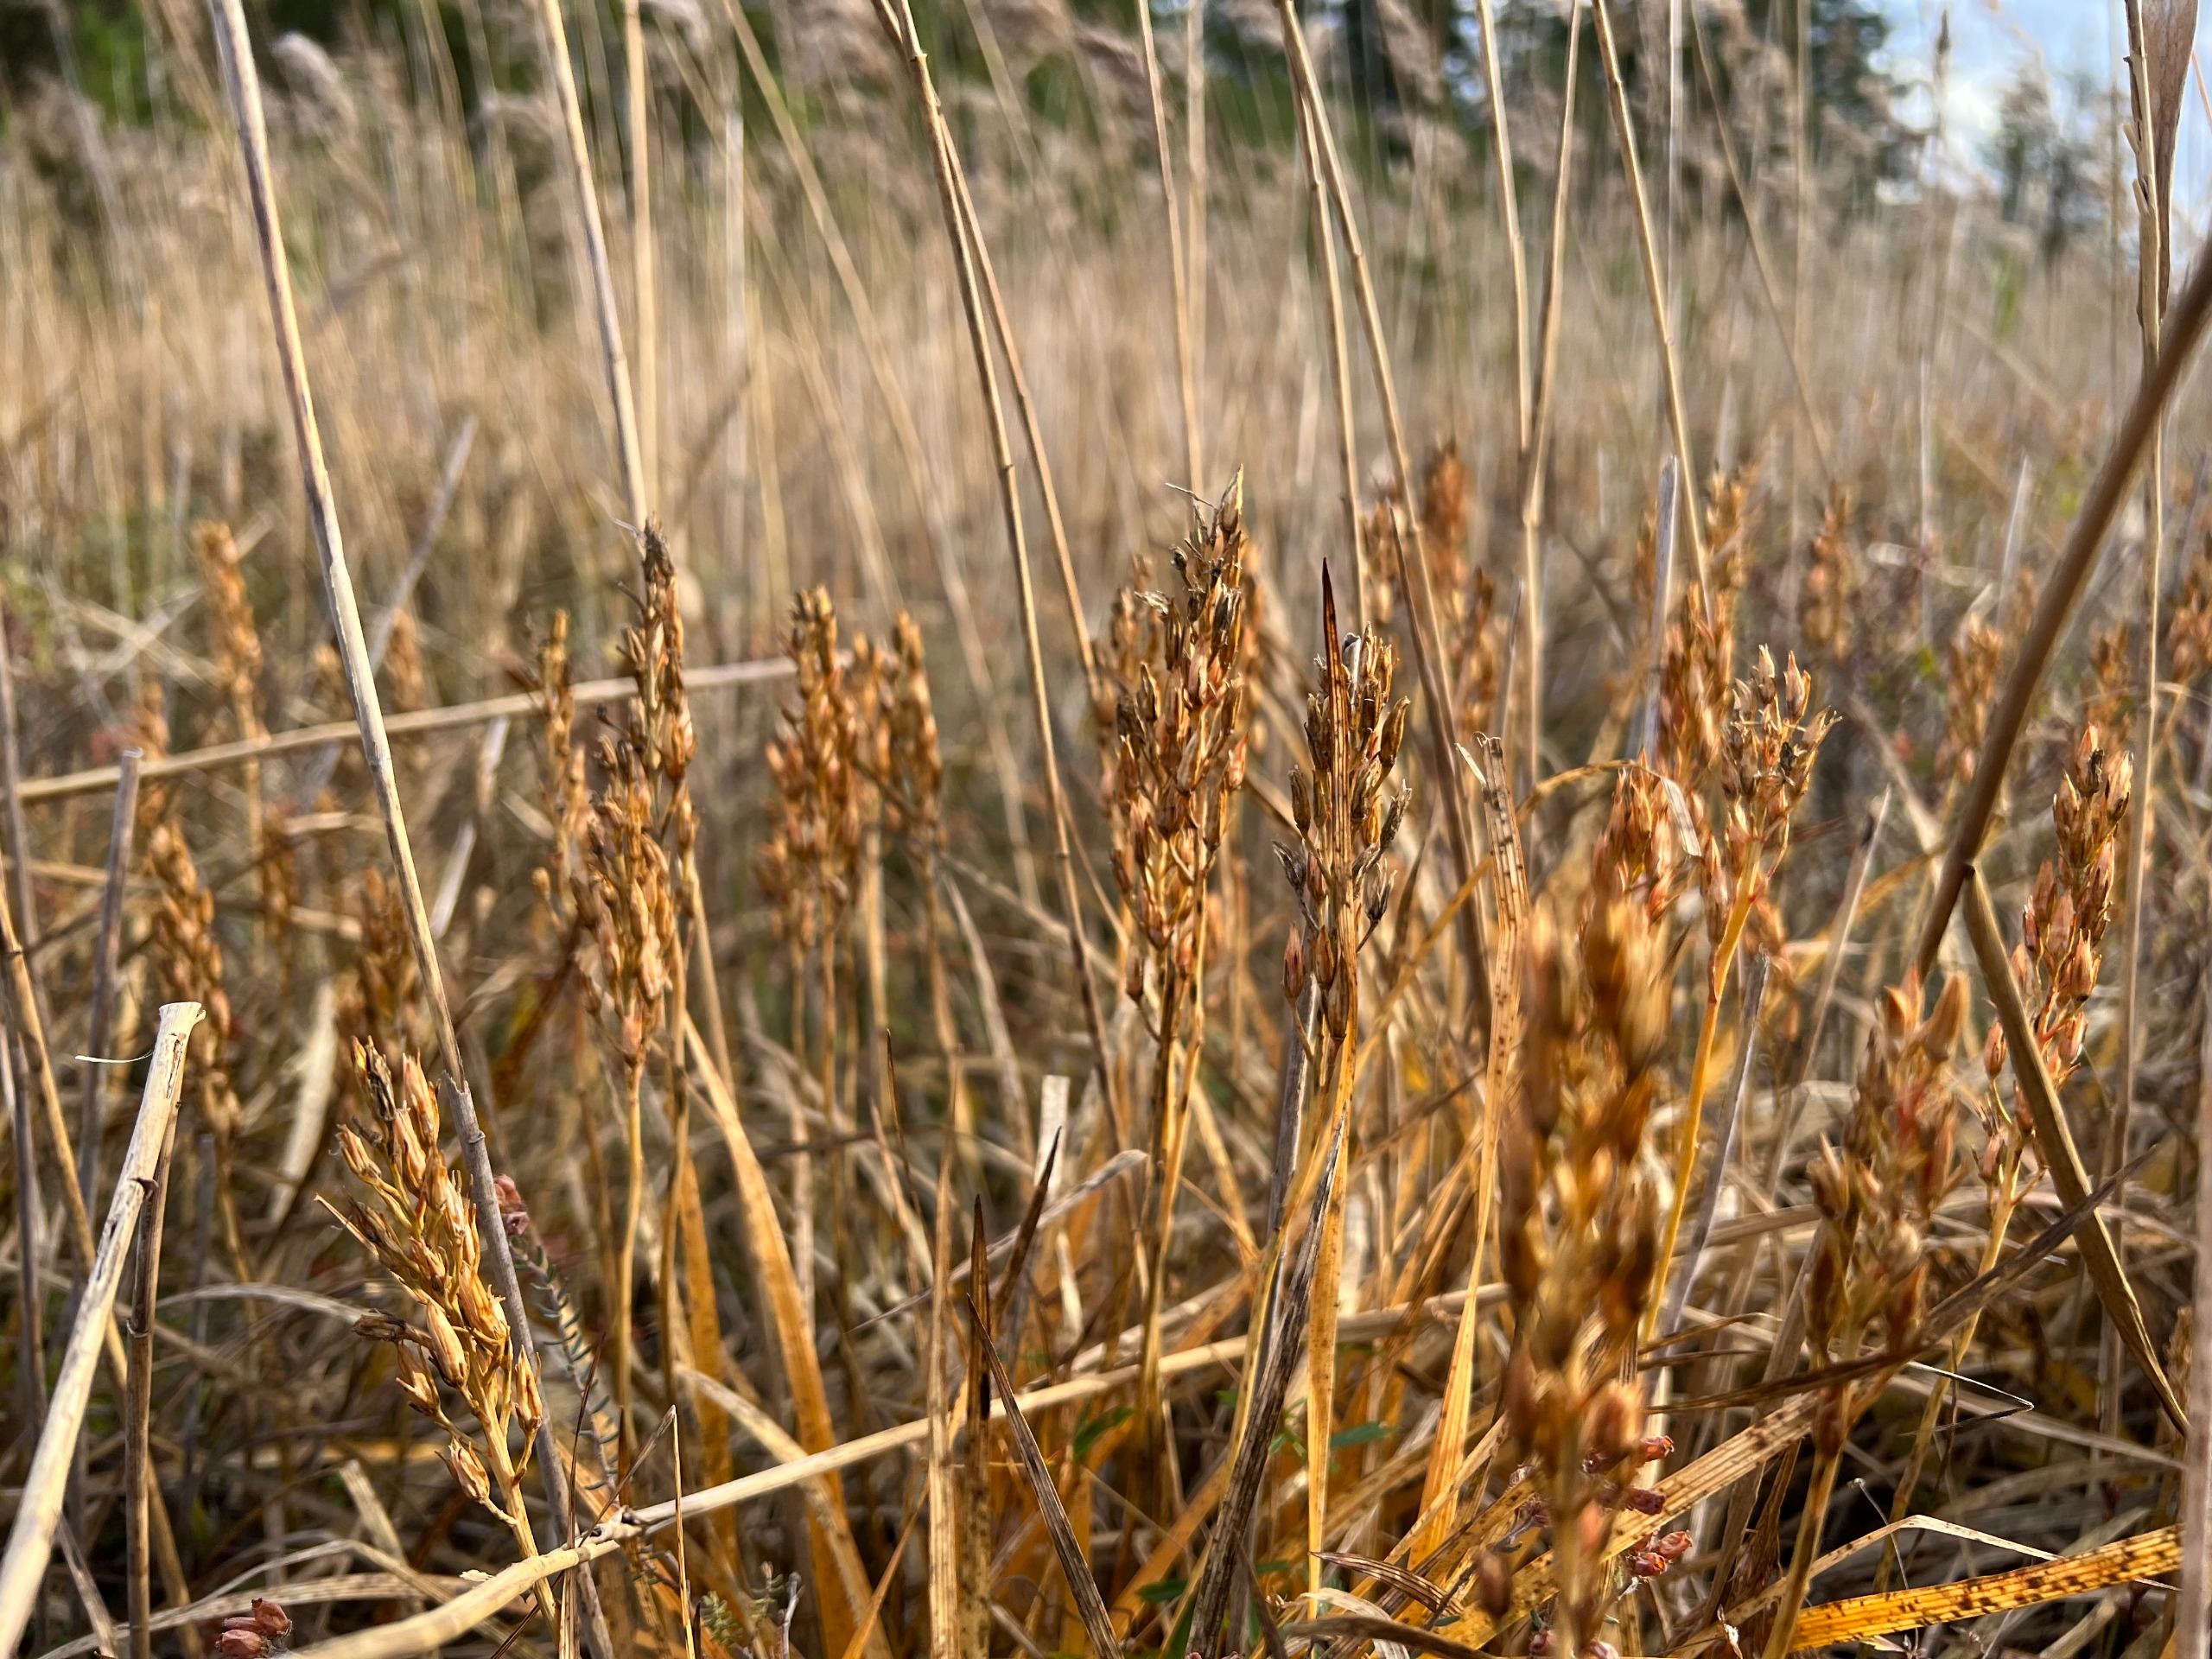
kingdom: Plantae
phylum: Tracheophyta
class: Liliopsida
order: Dioscoreales
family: Nartheciaceae
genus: Narthecium
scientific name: Narthecium ossifragum
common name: Benbræk
